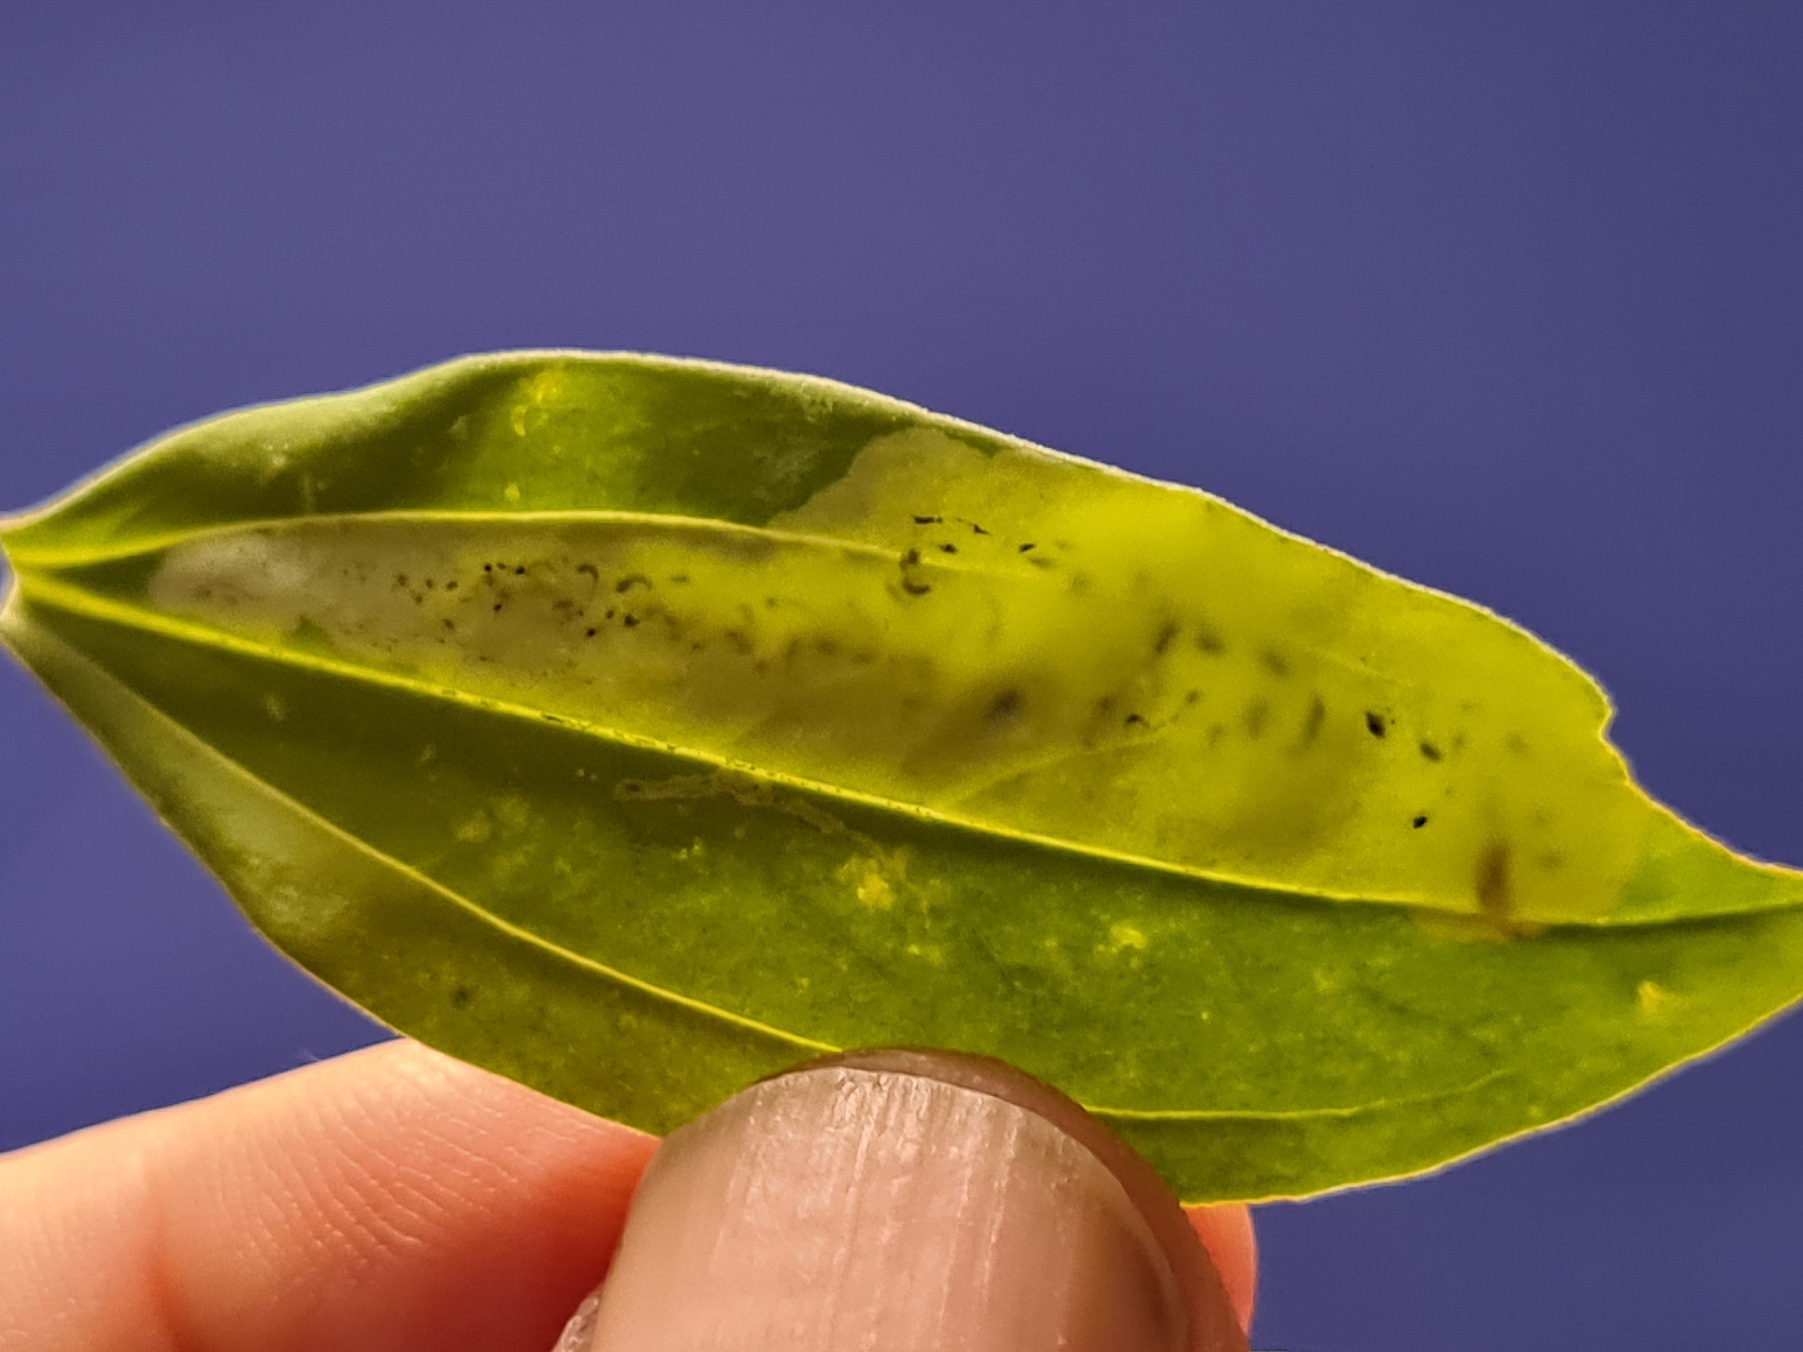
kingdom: Animalia
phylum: Arthropoda
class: Insecta
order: Diptera
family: Agromyzidae
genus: Amauromyza
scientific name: Amauromyza flavifrons
